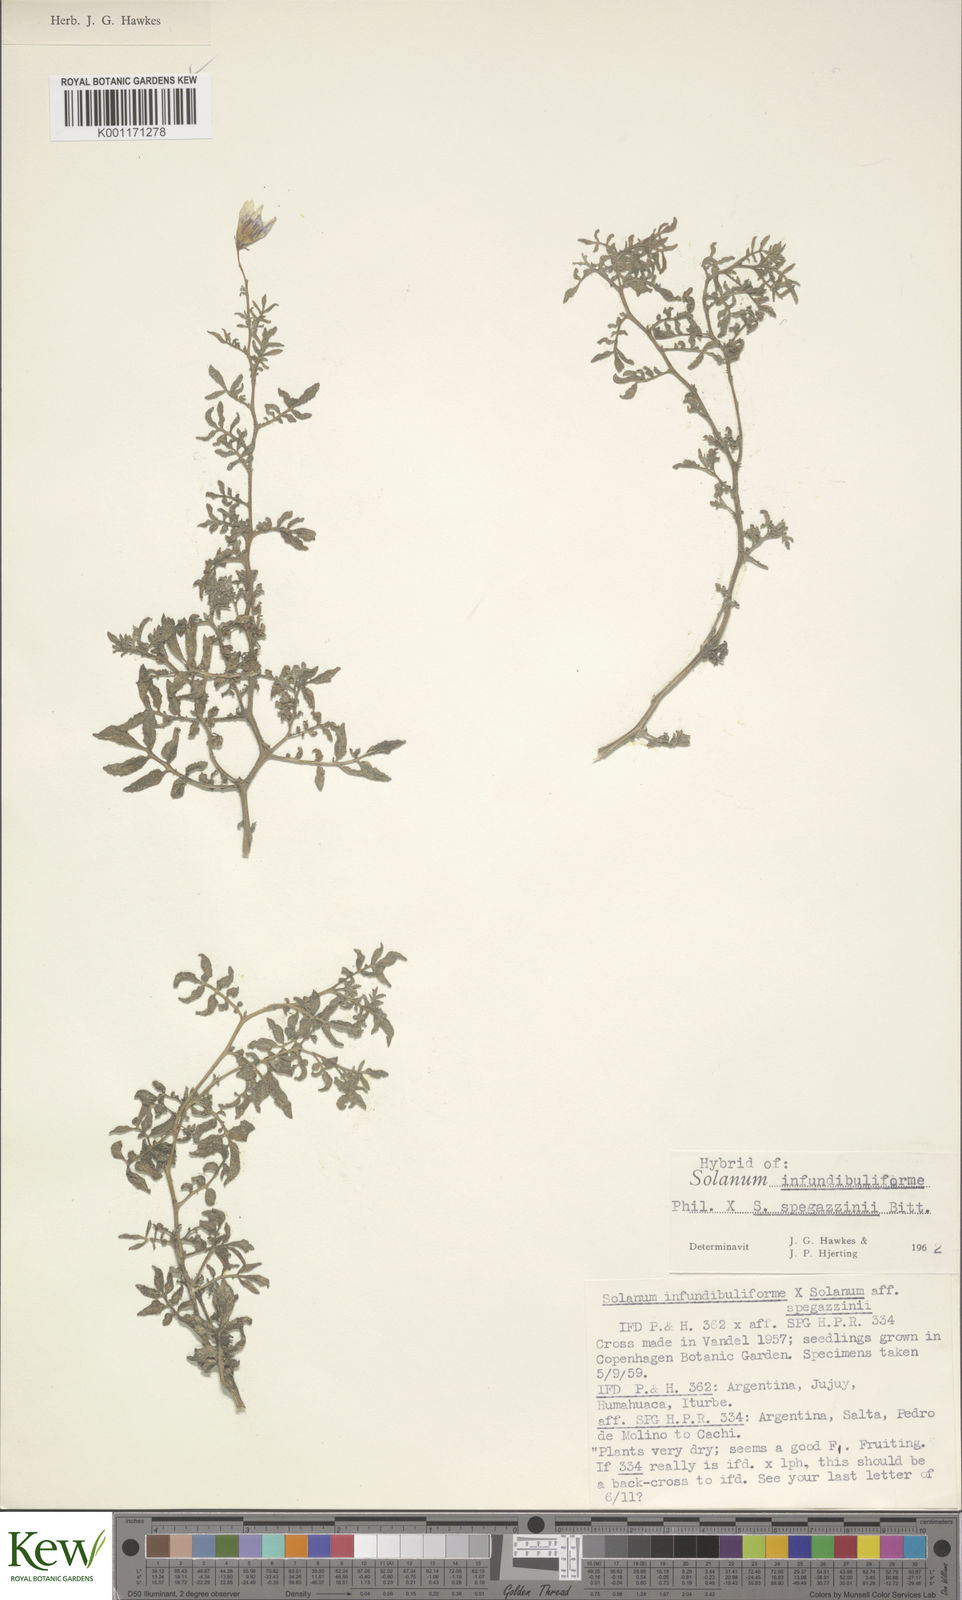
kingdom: Plantae
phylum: Tracheophyta
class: Magnoliopsida
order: Solanales
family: Solanaceae
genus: Solanum
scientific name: Solanum infundibuliforme
